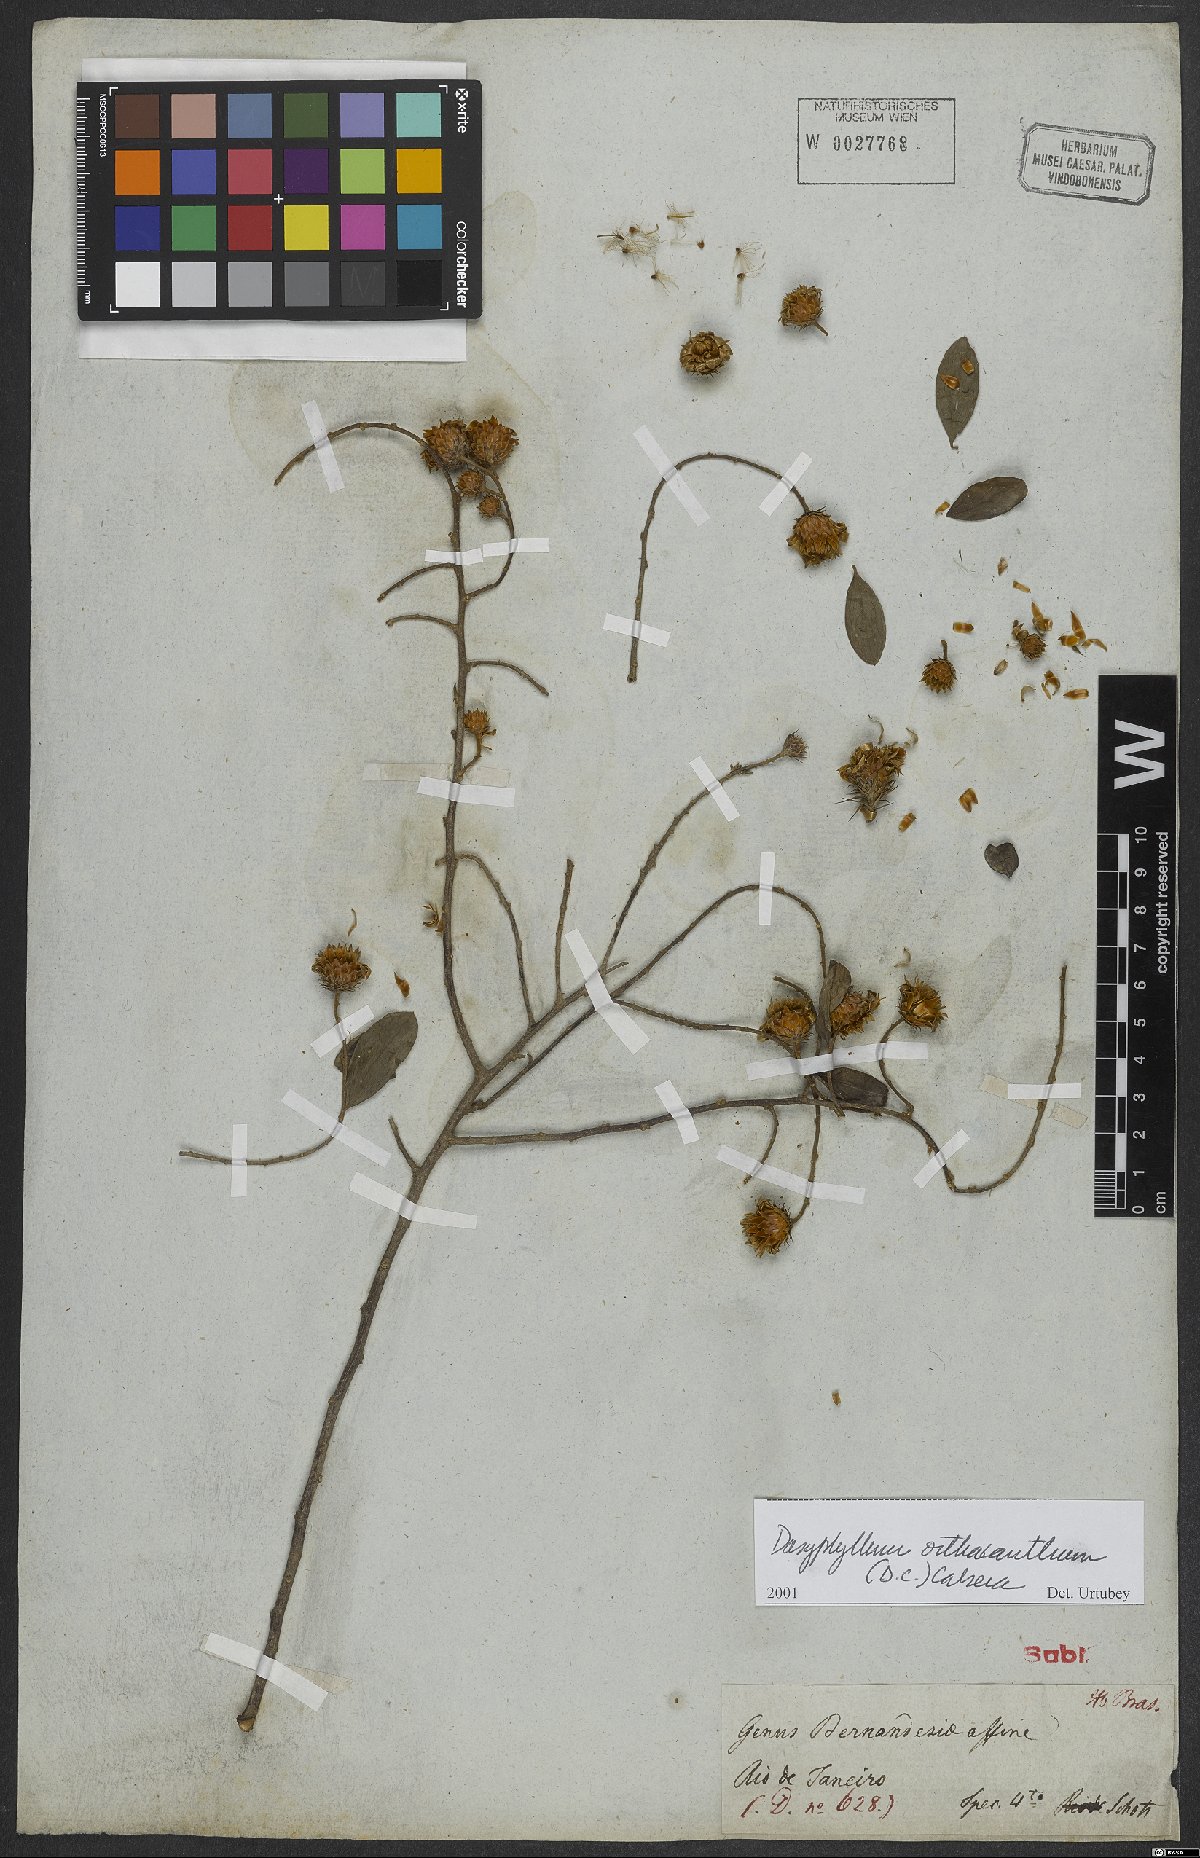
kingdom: Plantae
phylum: Tracheophyta
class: Magnoliopsida
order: Asterales
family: Asteraceae
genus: Dasyphyllum
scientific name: Dasyphyllum orthacanthum
